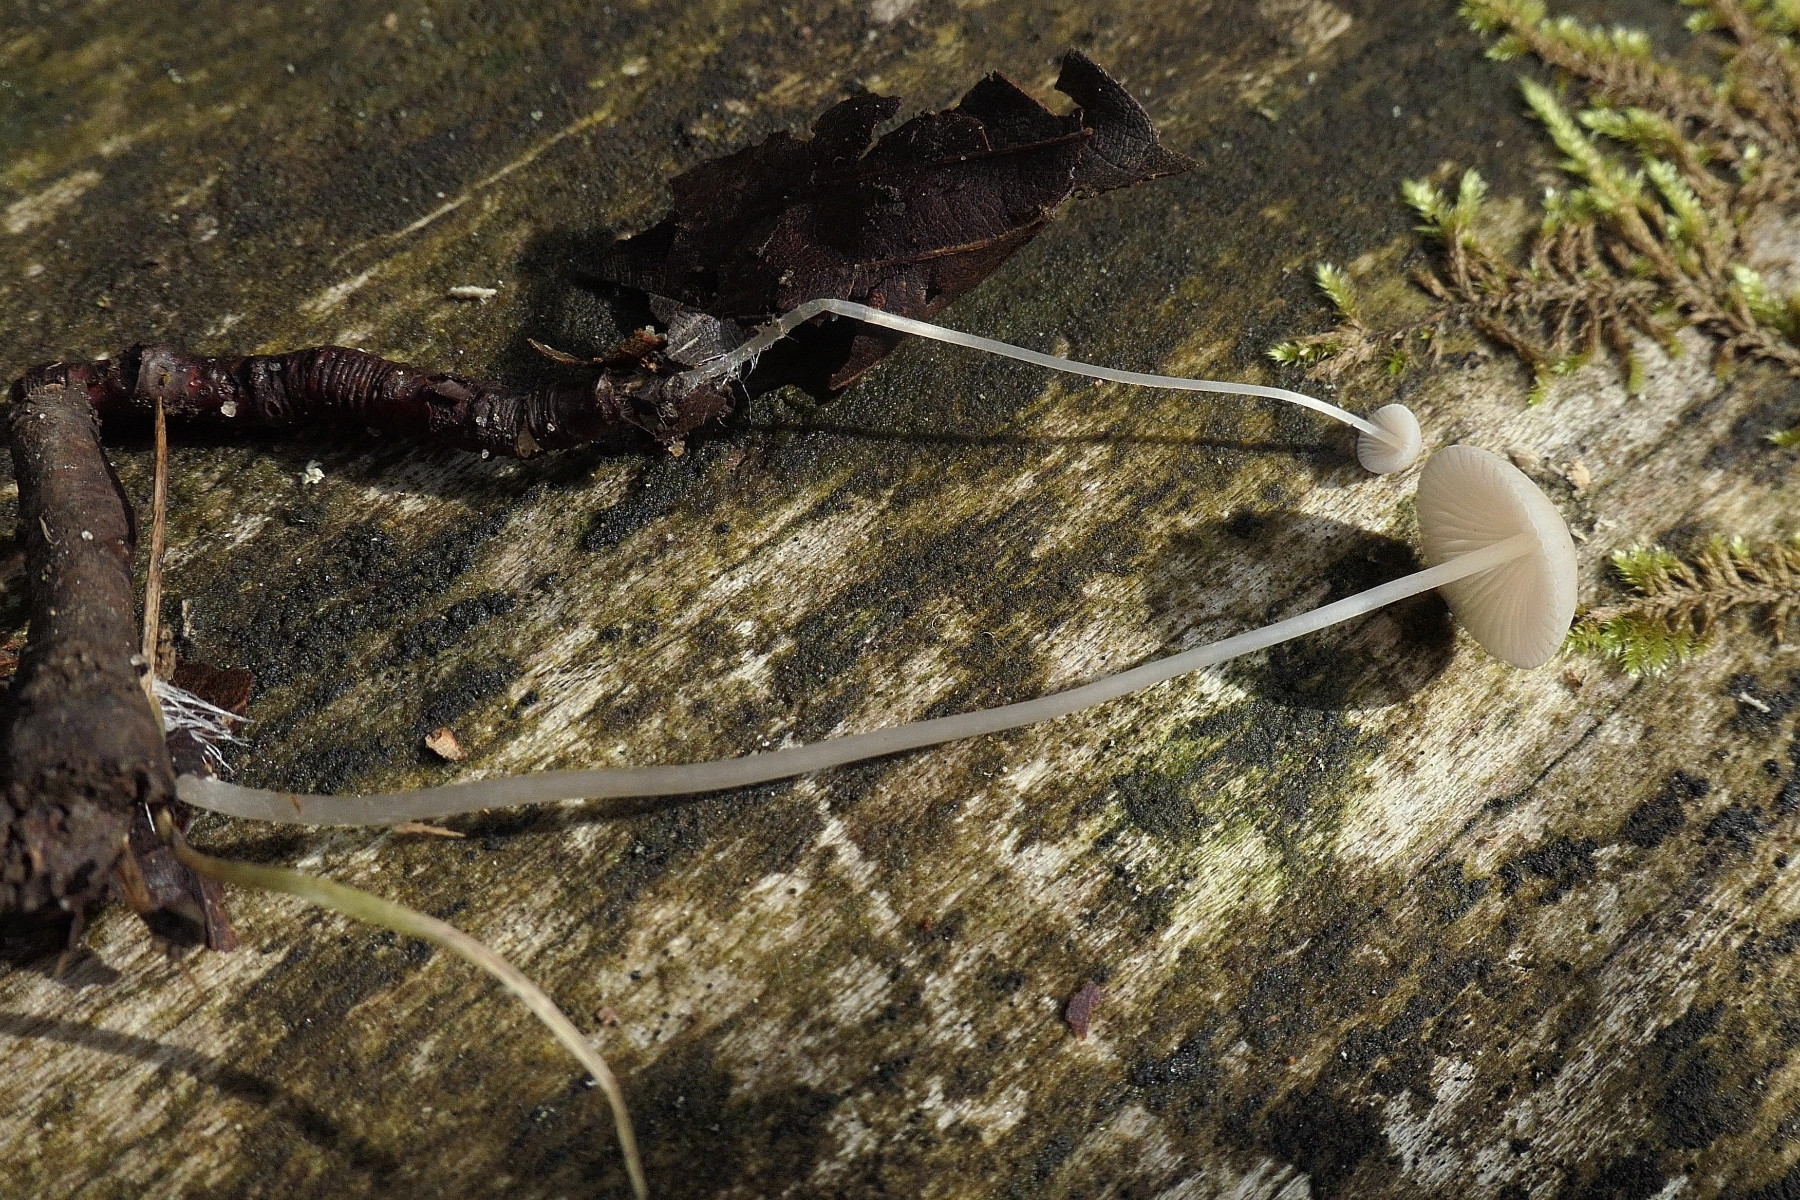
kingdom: Fungi
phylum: Basidiomycota
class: Agaricomycetes
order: Agaricales
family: Mycenaceae
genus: Mycena
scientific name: Mycena vitilis
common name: blankstokket huesvamp
